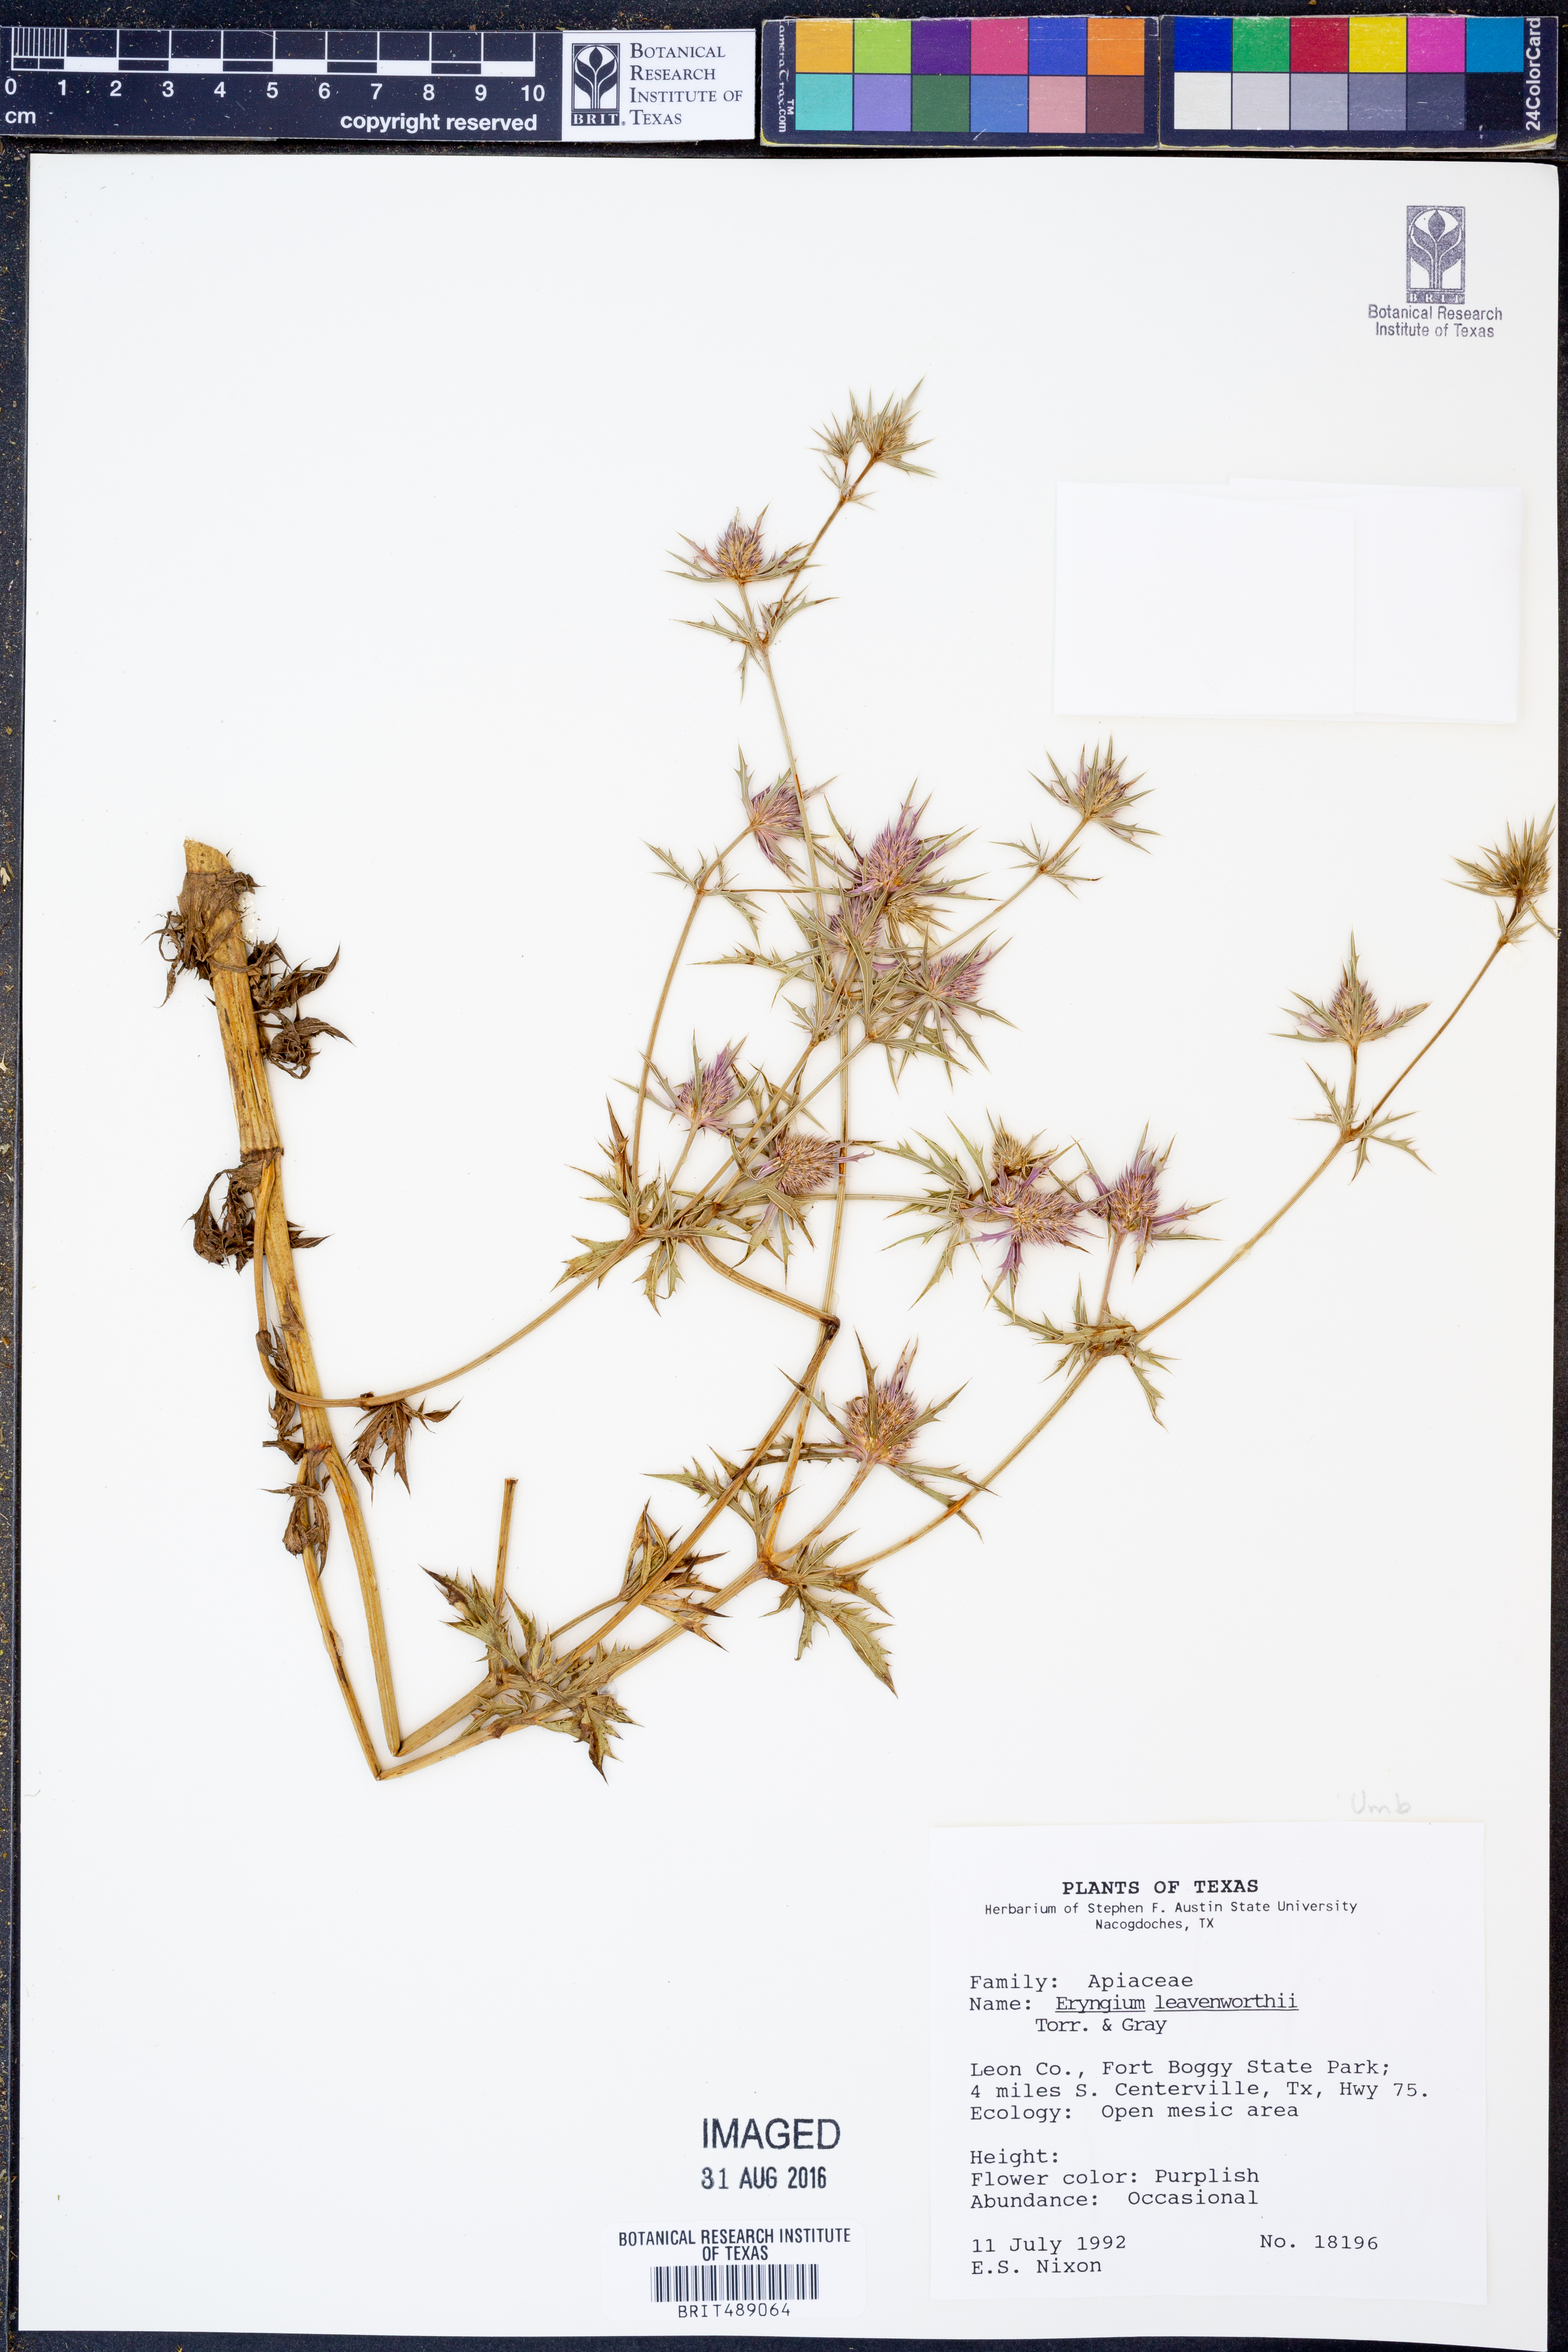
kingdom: Plantae
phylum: Tracheophyta
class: Magnoliopsida
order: Apiales
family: Apiaceae
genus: Eryngium
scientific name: Eryngium leavenworthii
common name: Leavenworth's eryngo
